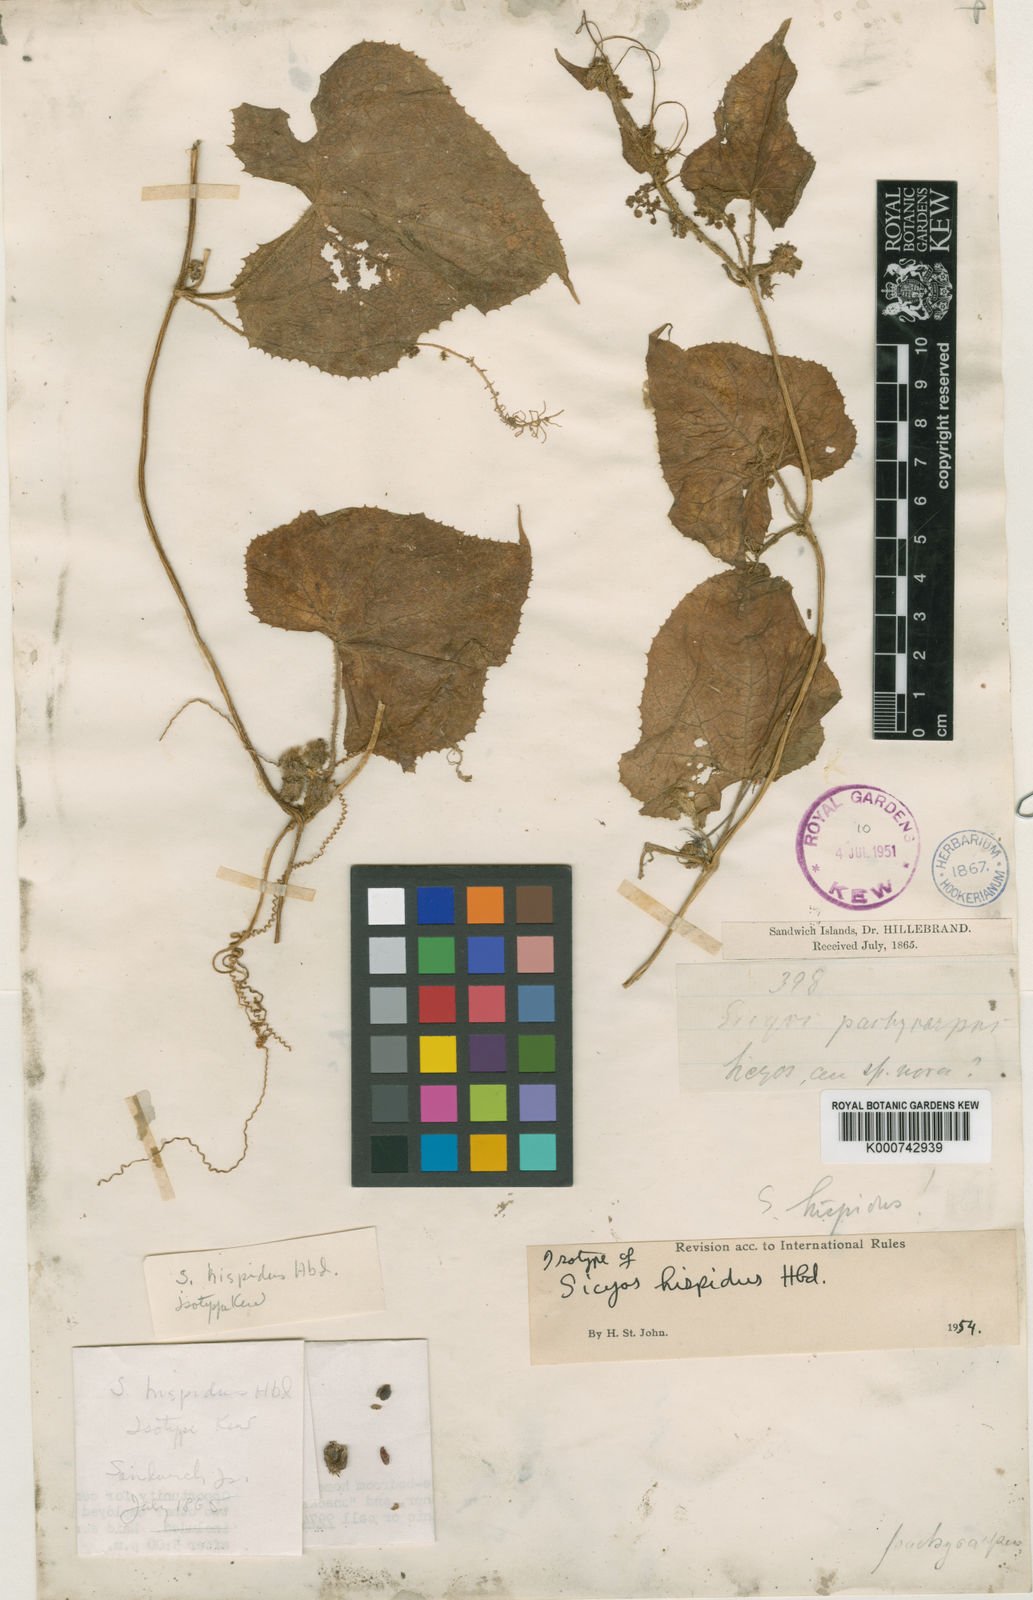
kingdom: Plantae
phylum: Tracheophyta
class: Magnoliopsida
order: Cucurbitales
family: Cucurbitaceae
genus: Sicyos
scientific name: Sicyos hispidus
